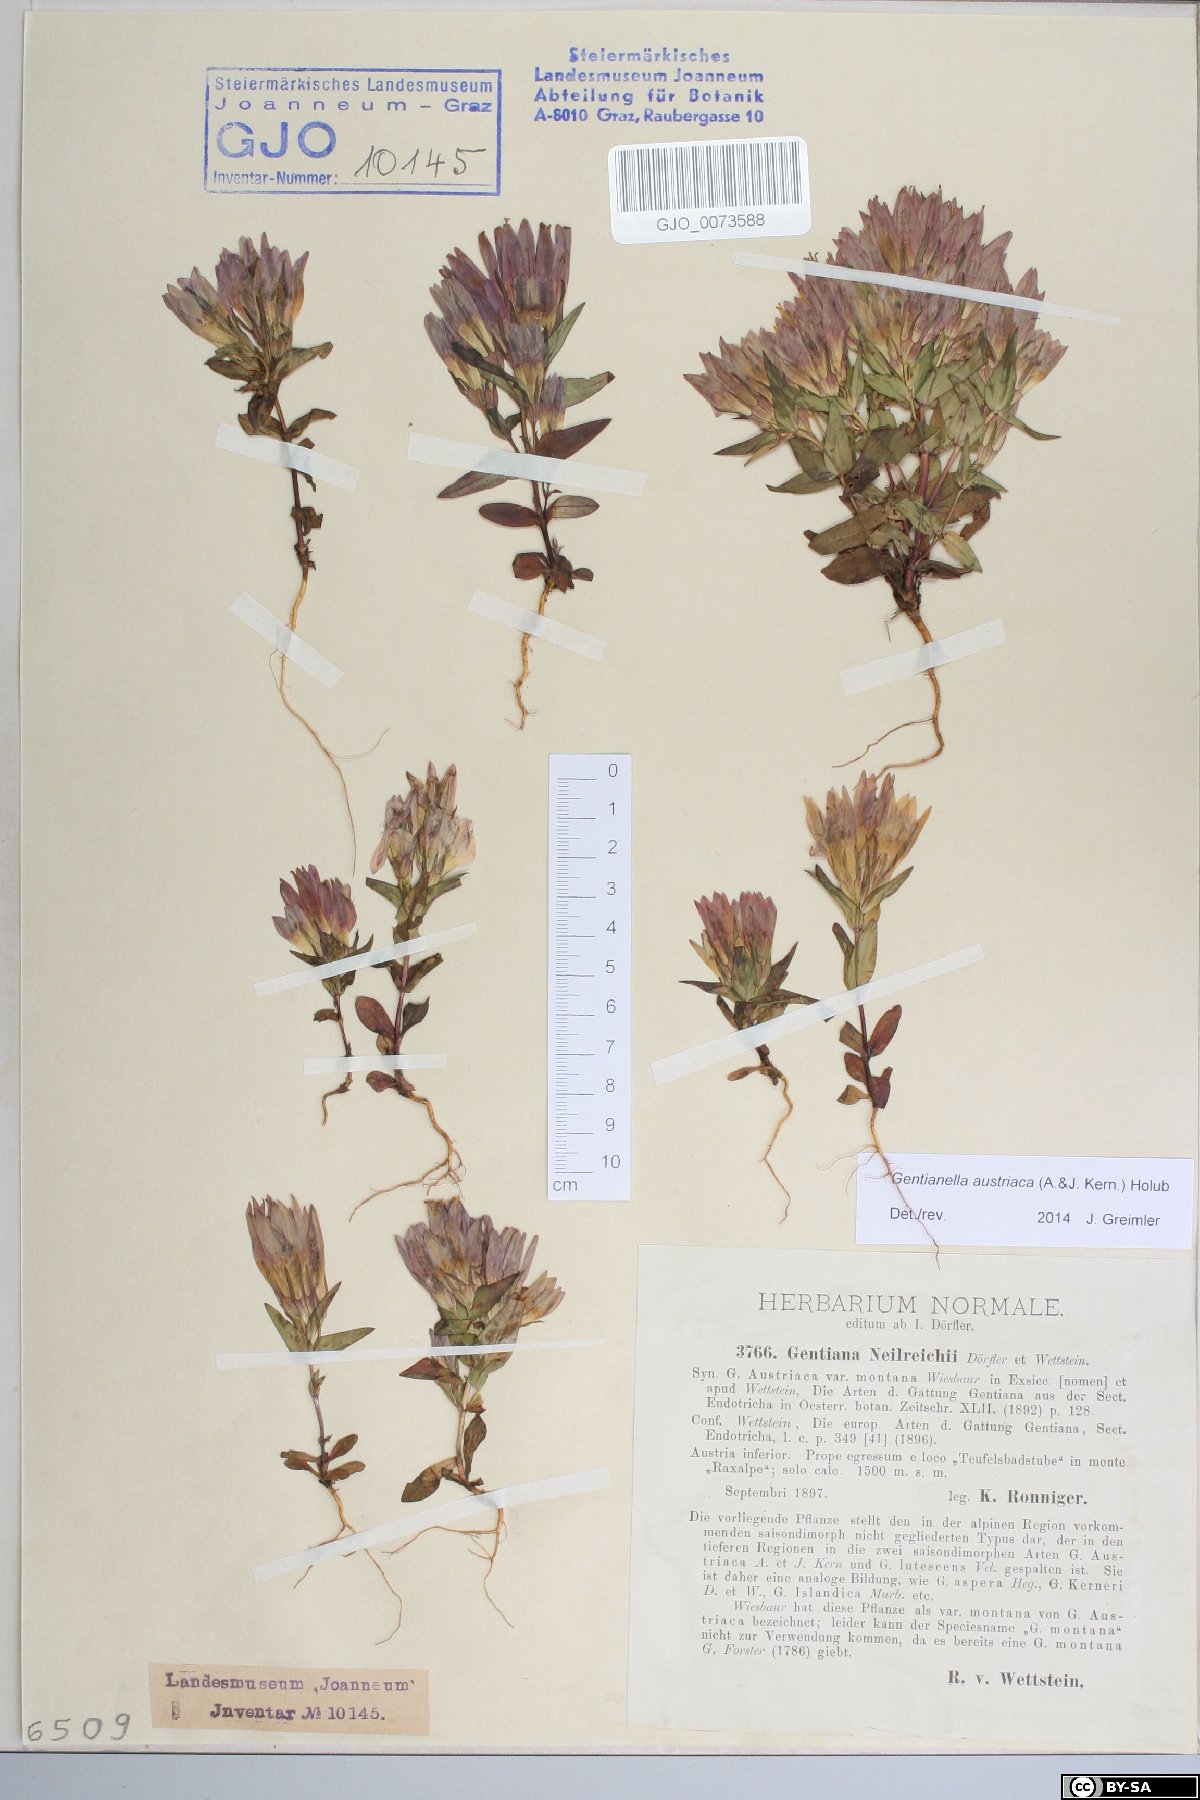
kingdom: Plantae
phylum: Tracheophyta
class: Magnoliopsida
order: Gentianales
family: Gentianaceae
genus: Gentianella
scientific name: Gentianella austriaca
